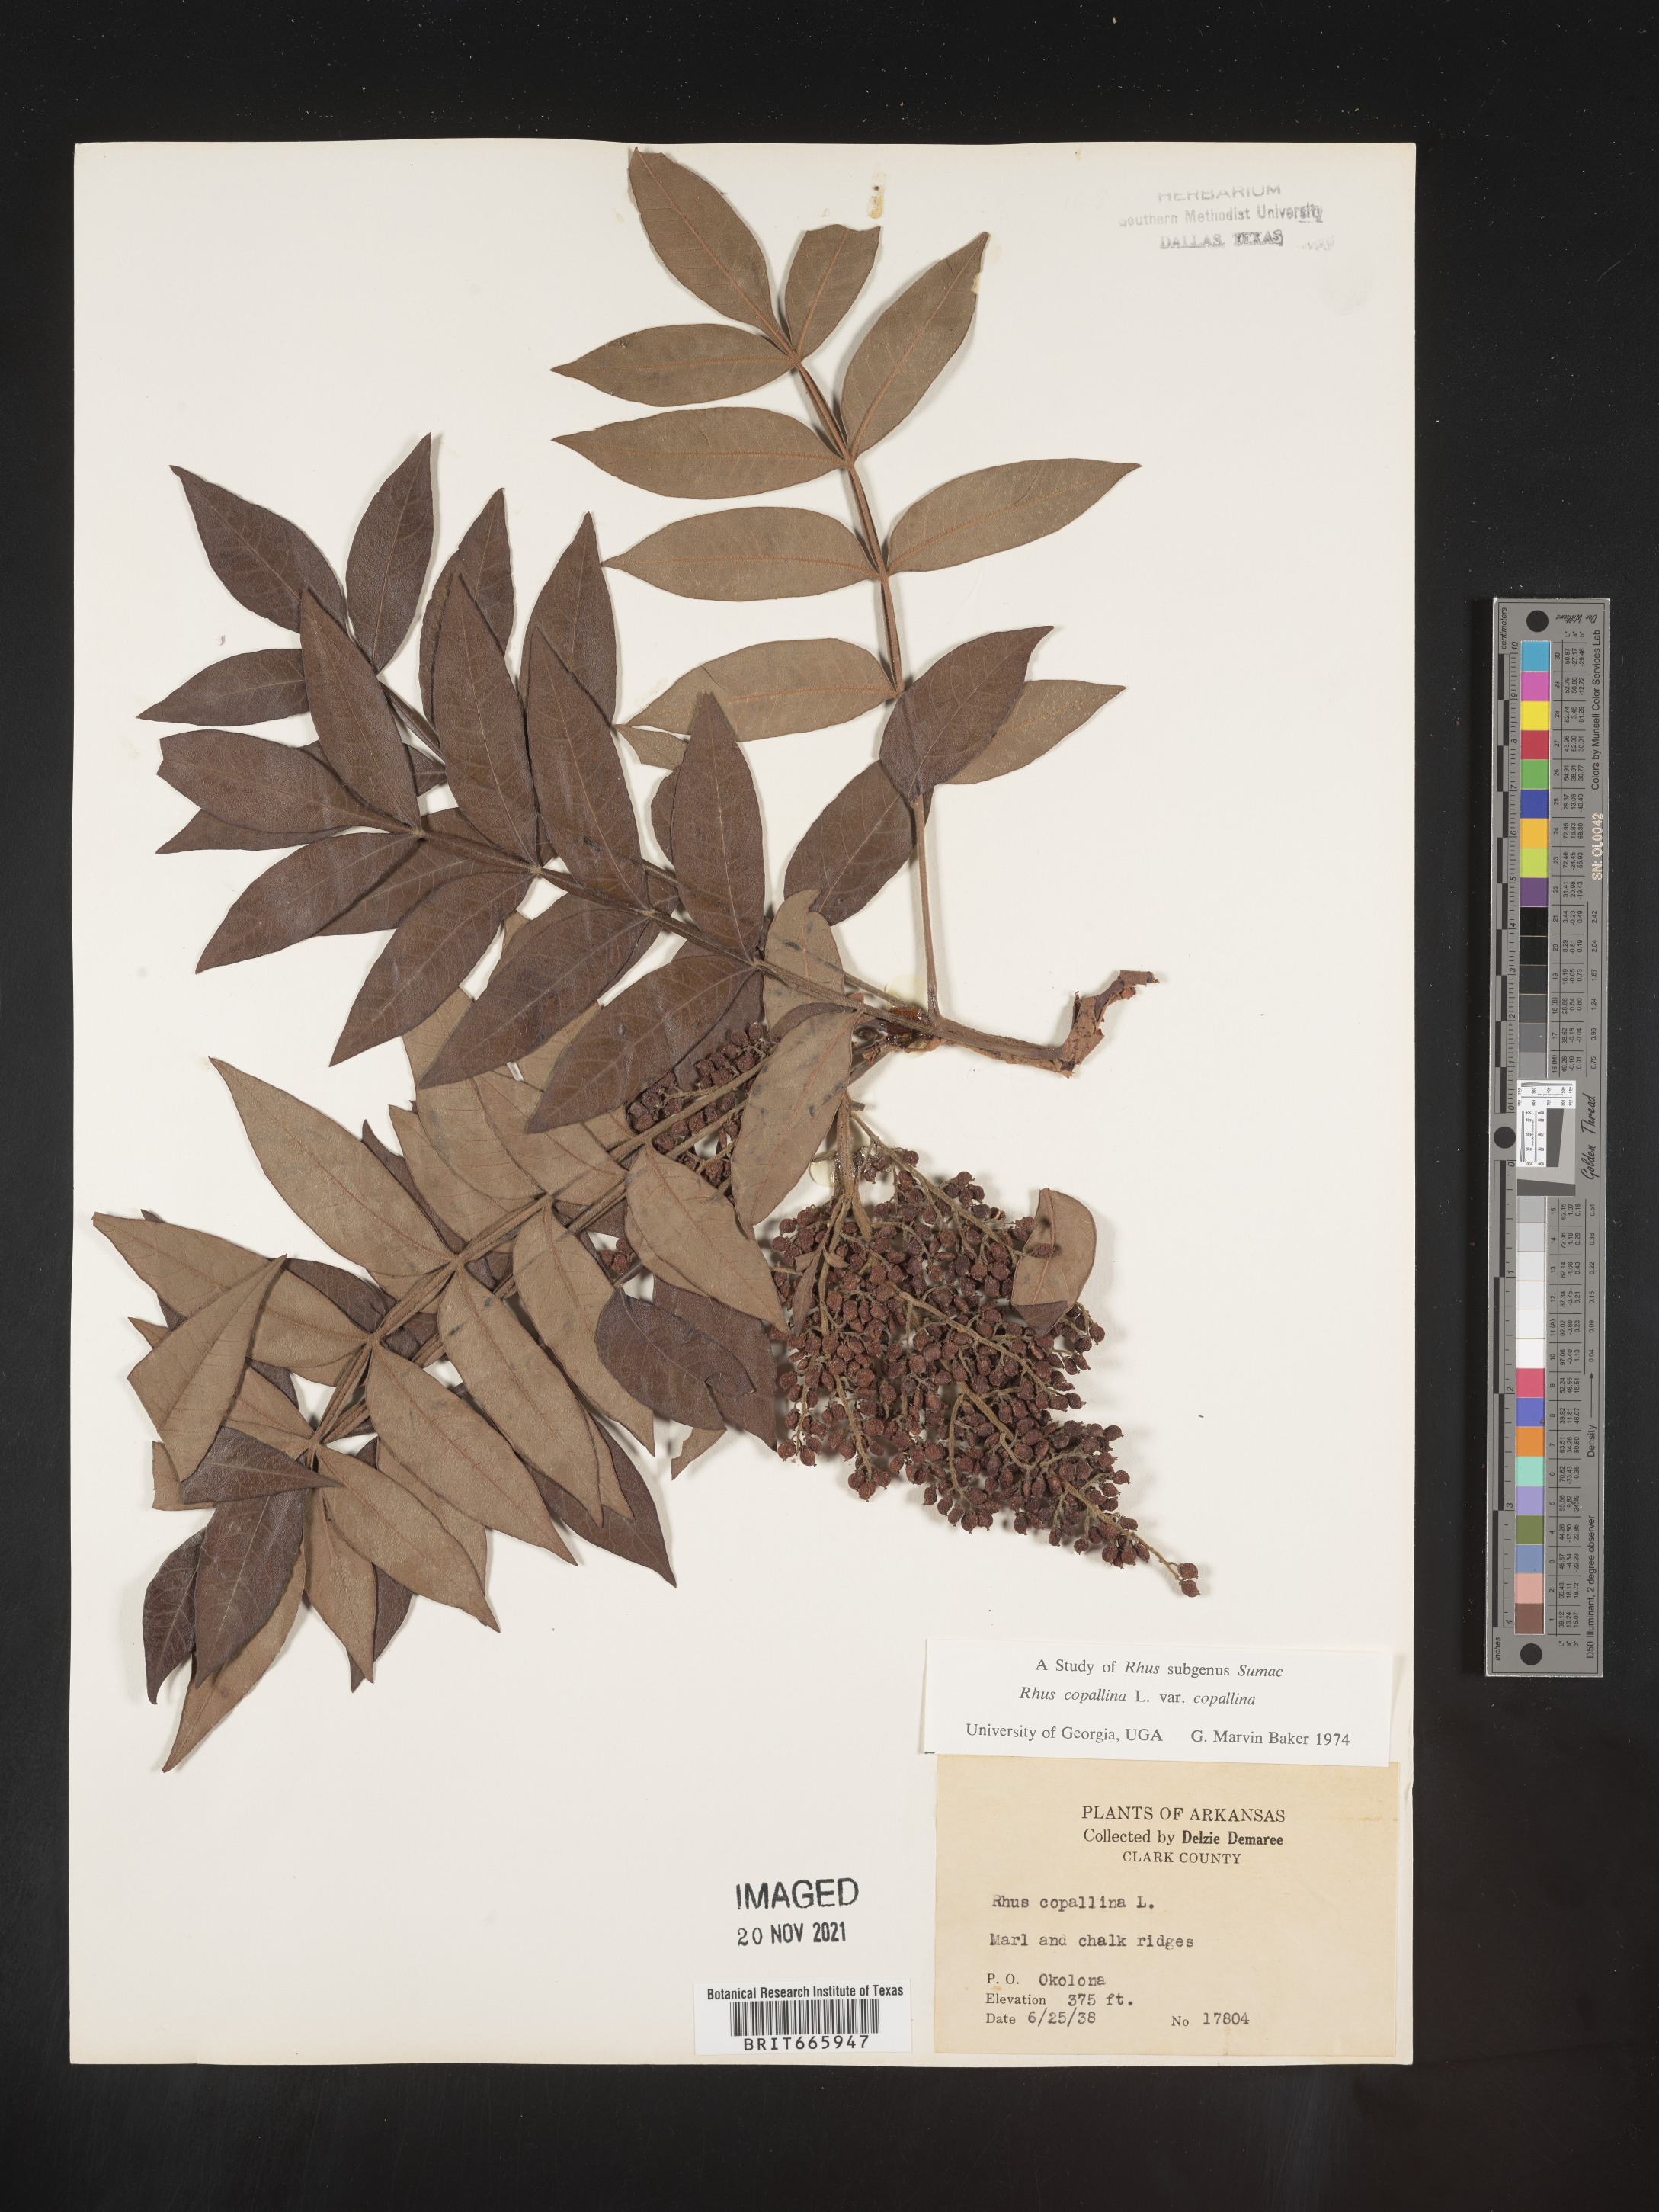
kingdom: Plantae
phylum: Tracheophyta
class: Magnoliopsida
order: Sapindales
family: Anacardiaceae
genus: Rhus
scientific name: Rhus copallina
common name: Shining sumac
